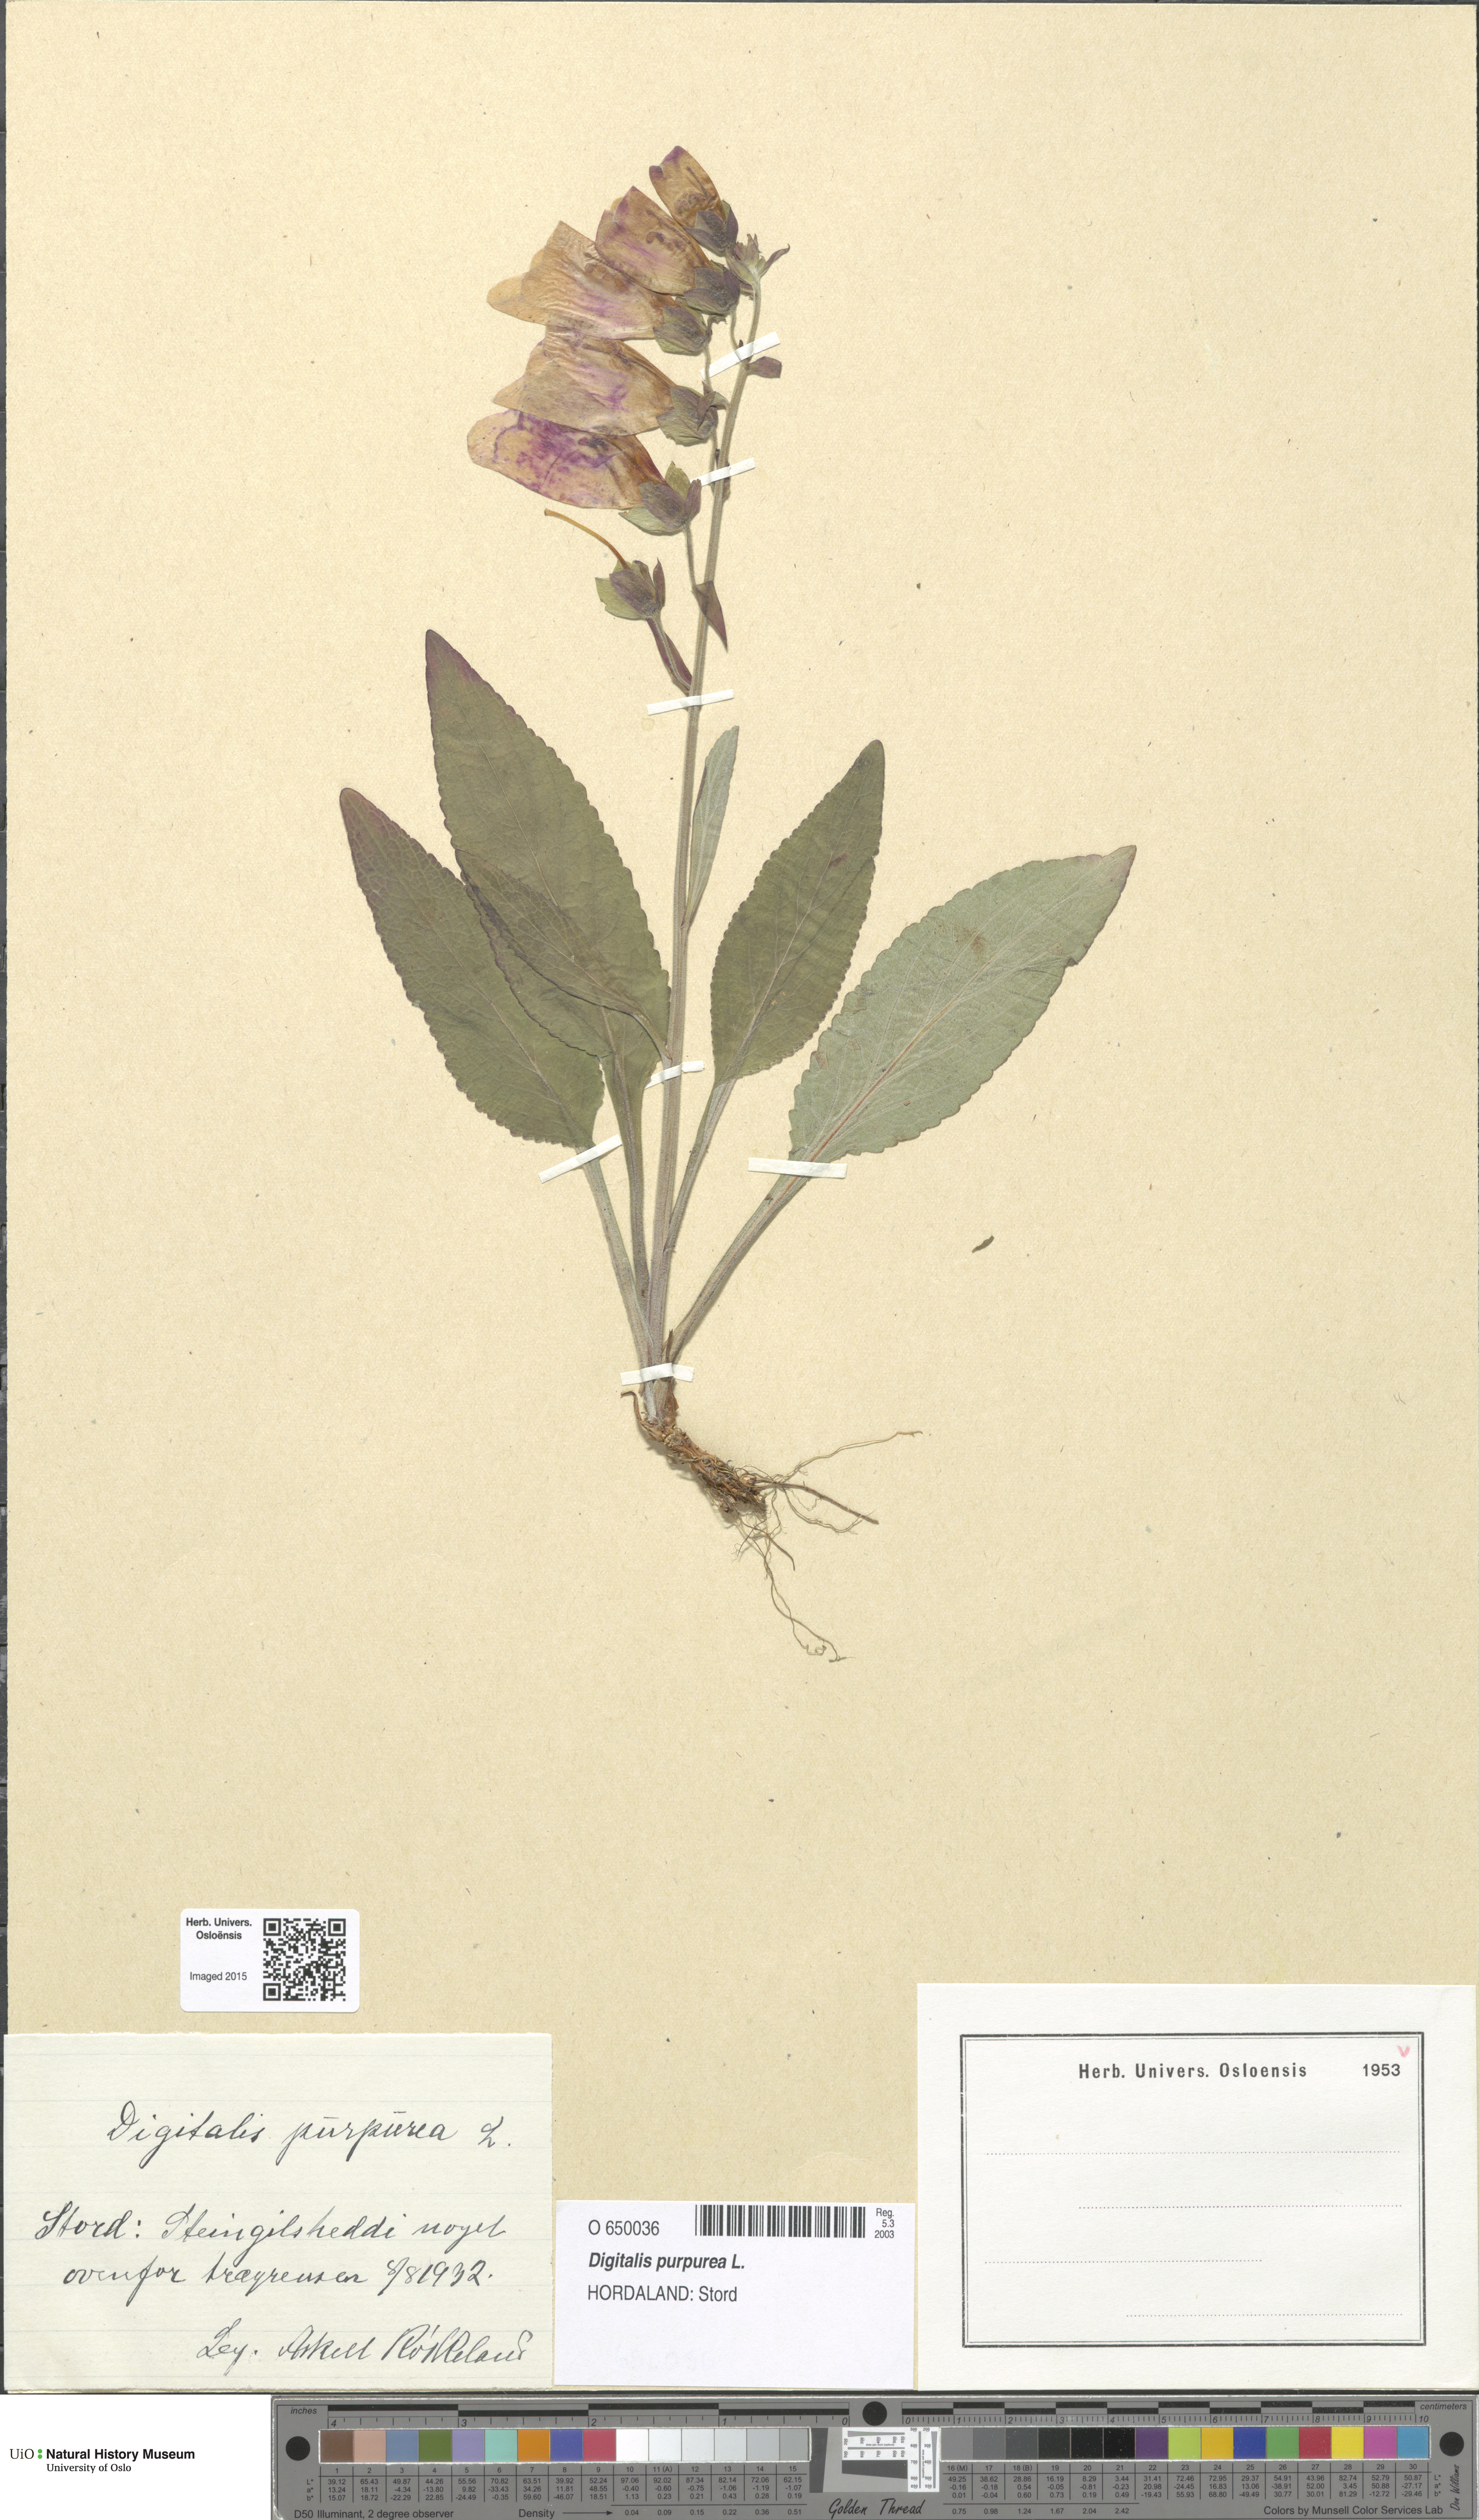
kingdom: Plantae
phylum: Tracheophyta
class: Magnoliopsida
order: Lamiales
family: Plantaginaceae
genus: Digitalis
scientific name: Digitalis purpurea
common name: Foxglove
